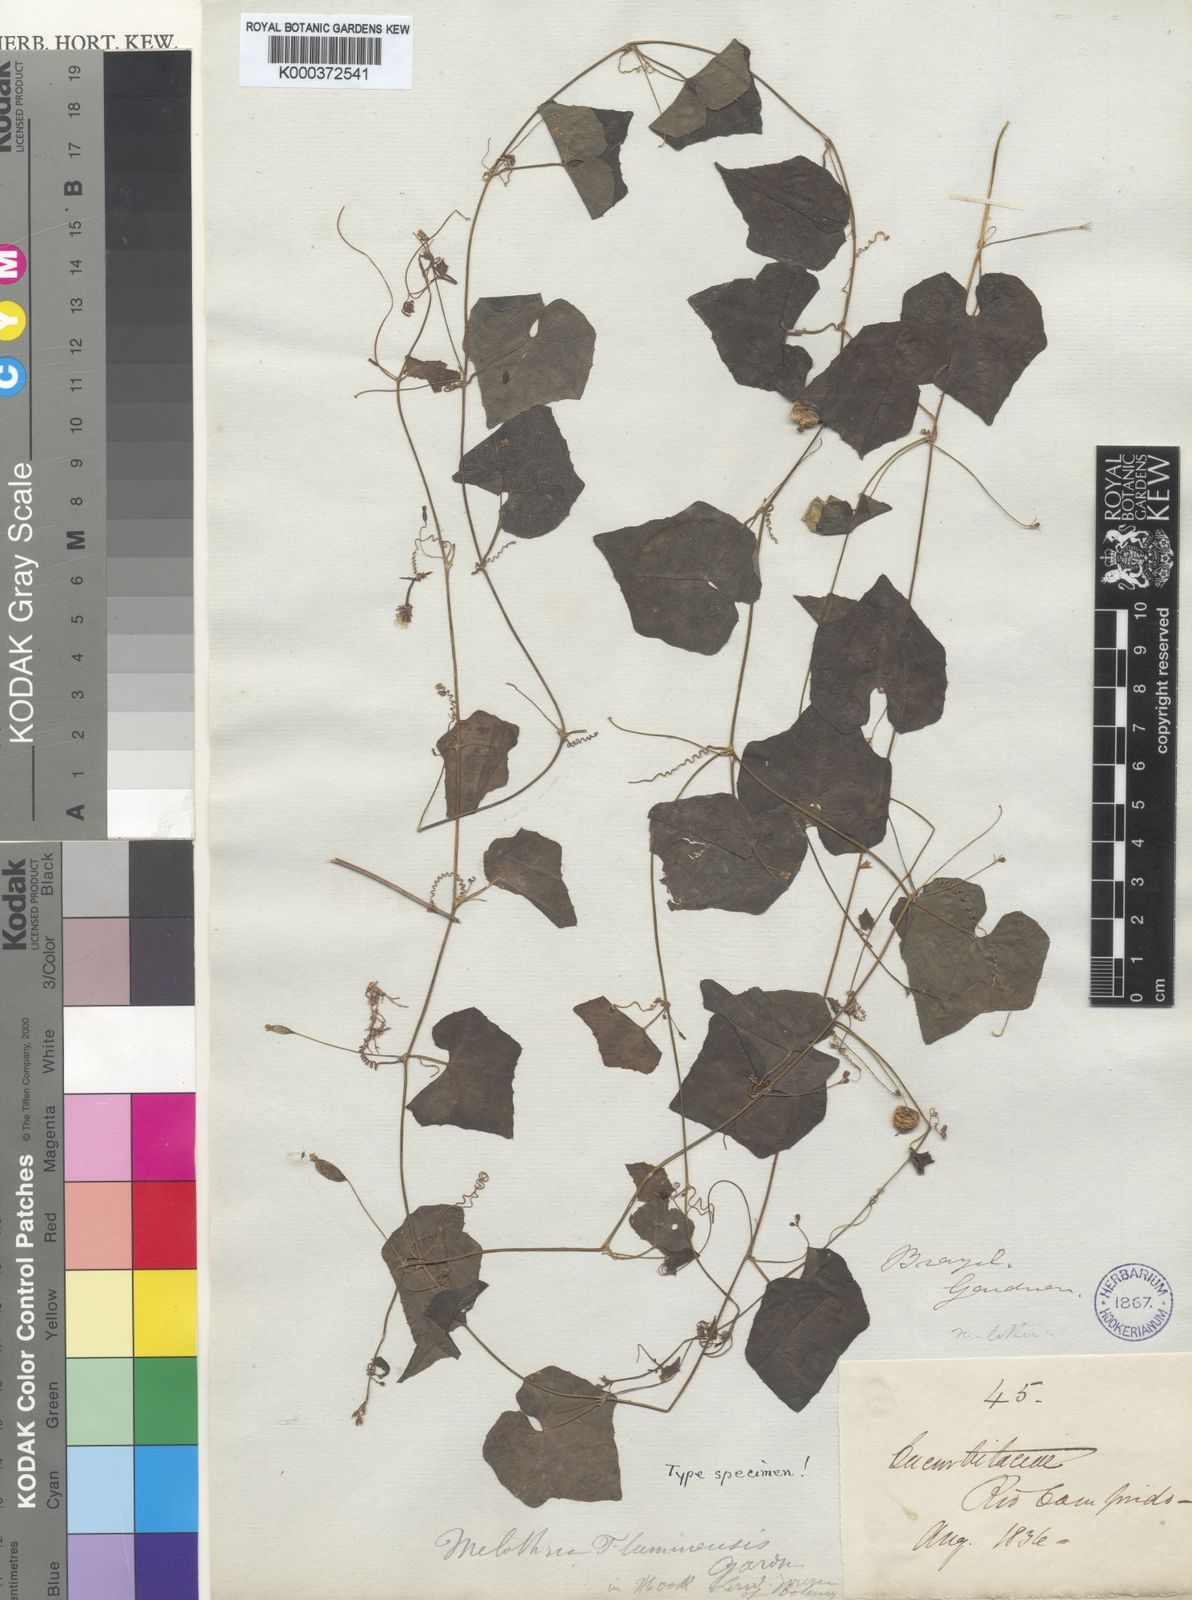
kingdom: Plantae
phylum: Tracheophyta
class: Magnoliopsida
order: Cucurbitales
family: Cucurbitaceae
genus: Melothria
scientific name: Melothria pendula
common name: Creeping-cucumber
